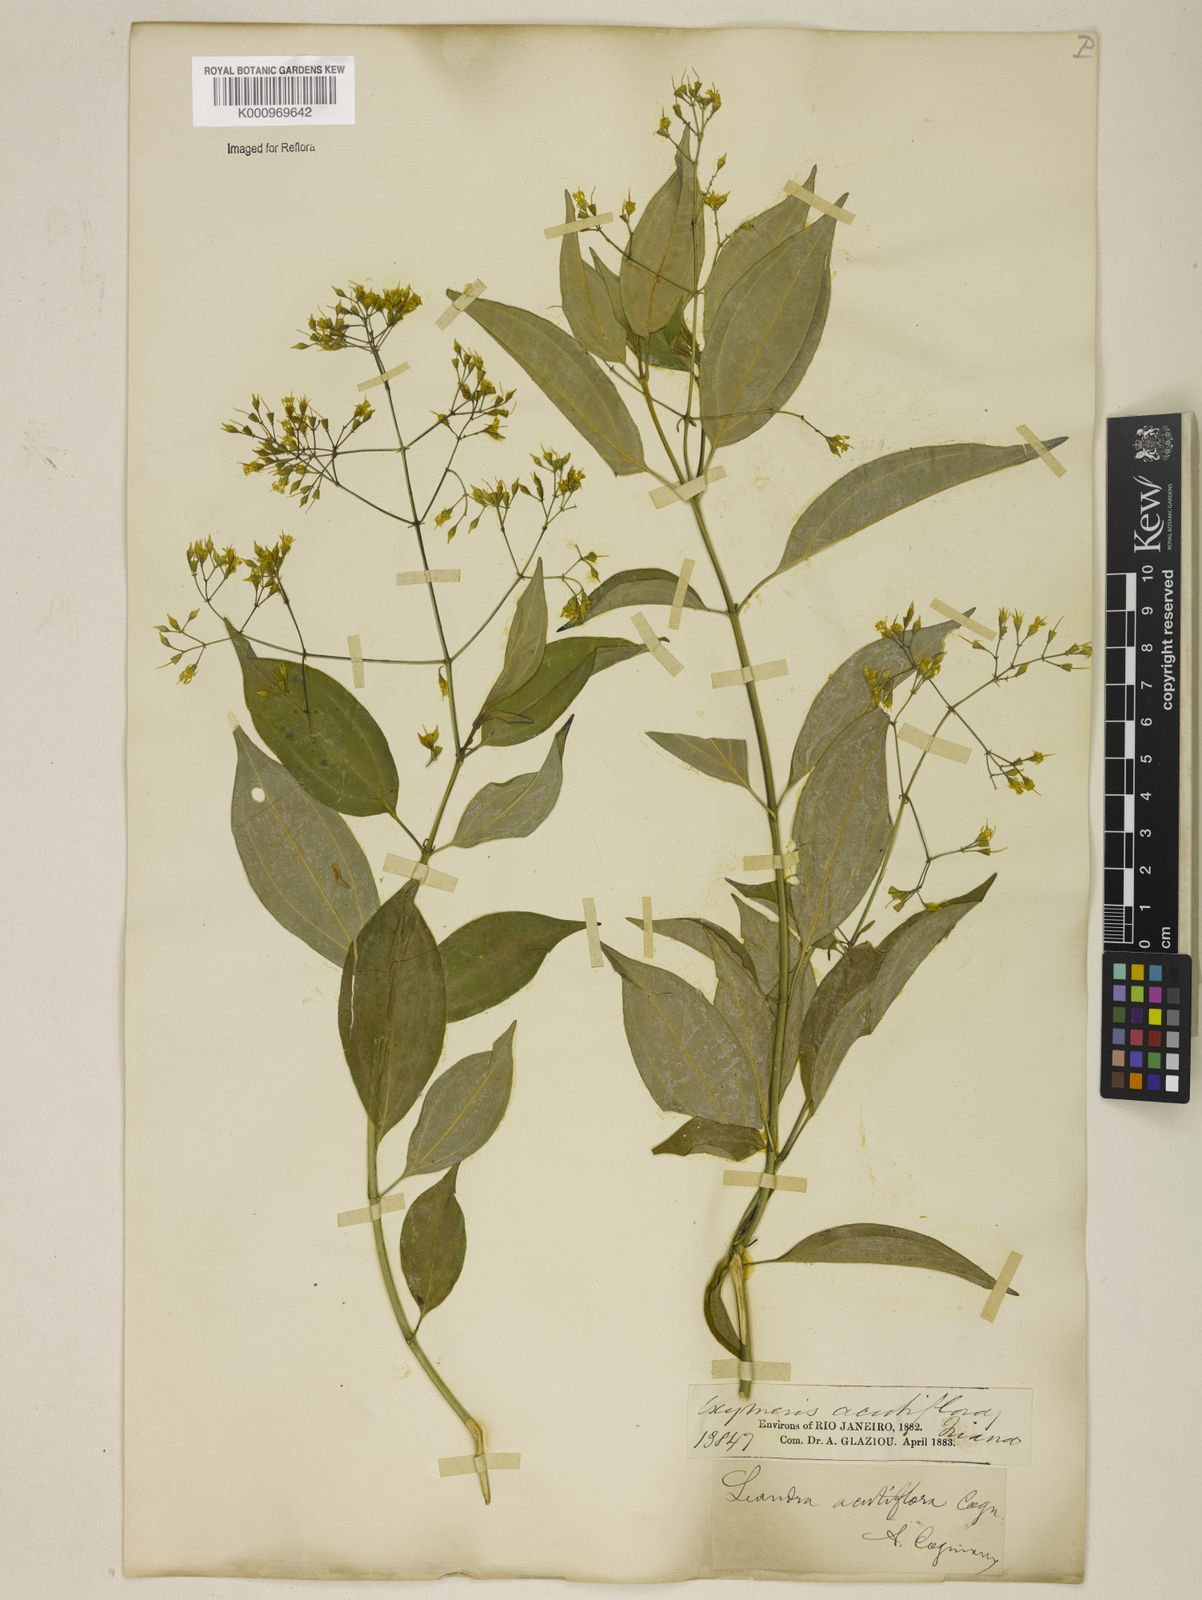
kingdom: Plantae
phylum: Tracheophyta
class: Magnoliopsida
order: Myrtales
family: Melastomataceae
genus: Miconia
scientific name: Miconia acutiflora
